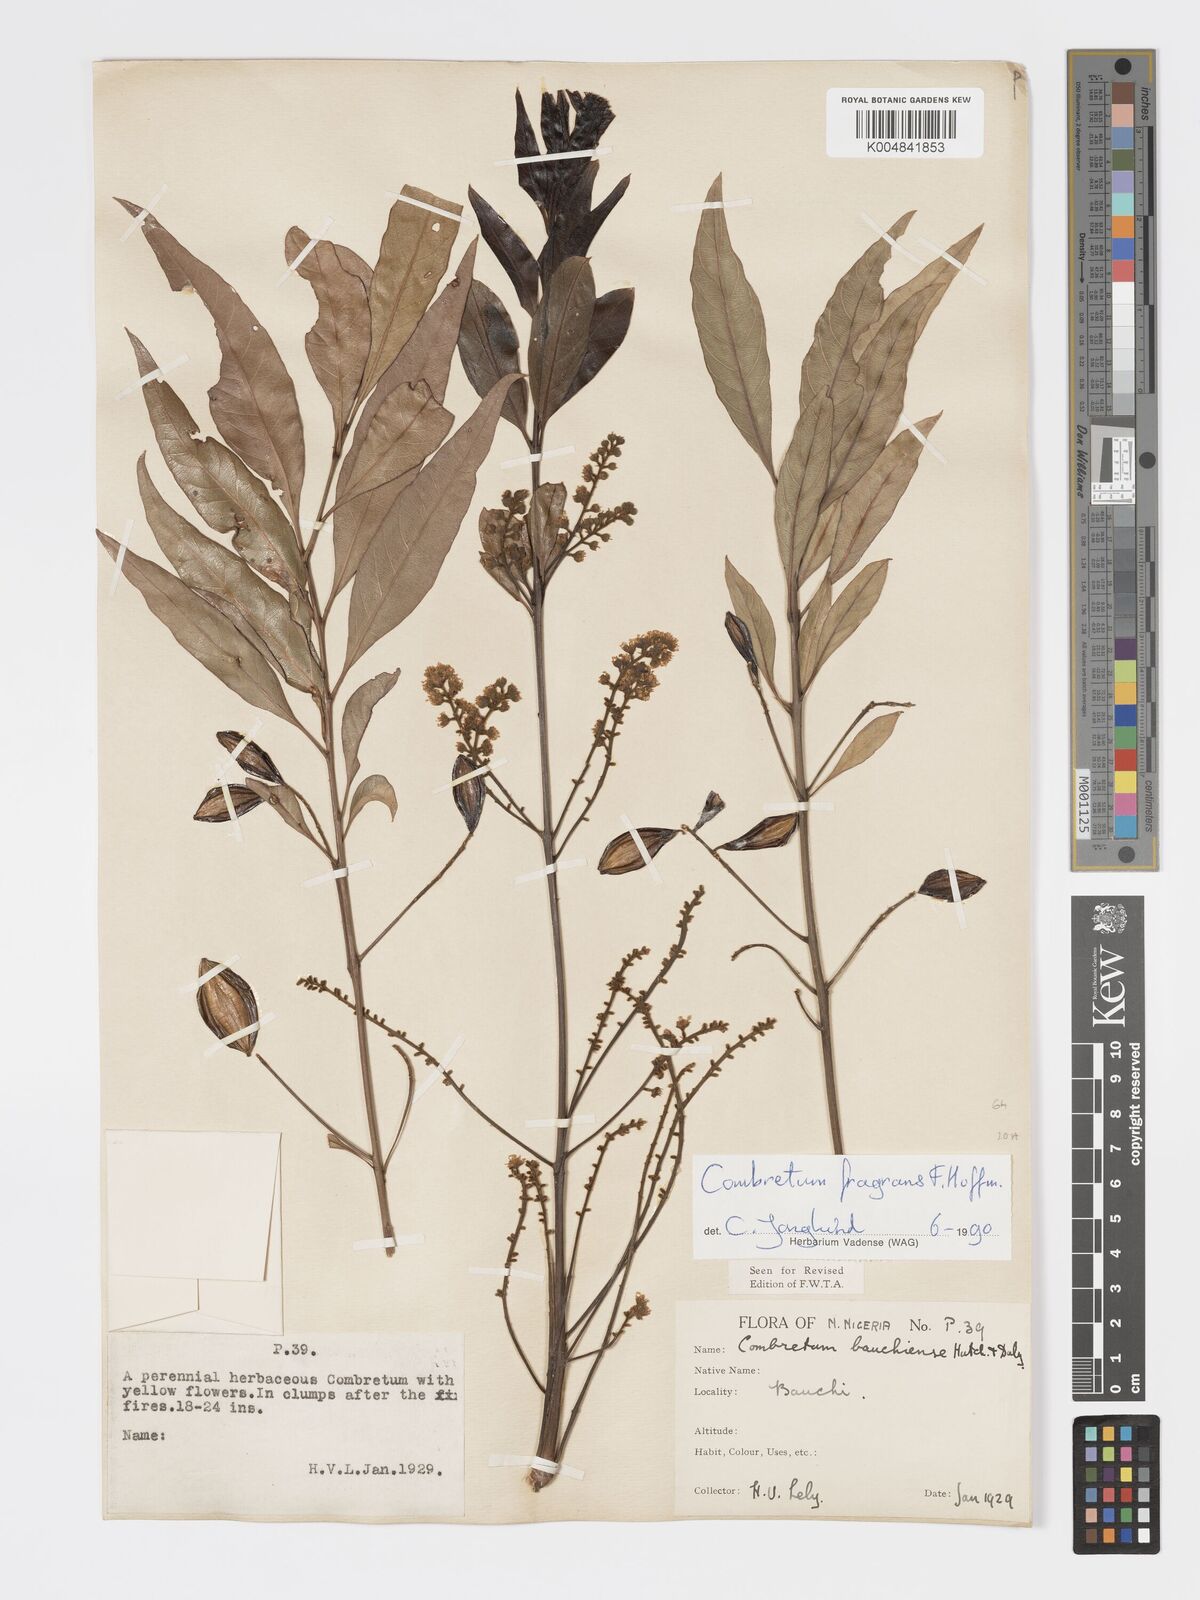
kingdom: Plantae
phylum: Tracheophyta
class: Magnoliopsida
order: Myrtales
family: Combretaceae
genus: Combretum
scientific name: Combretum adenogonium
